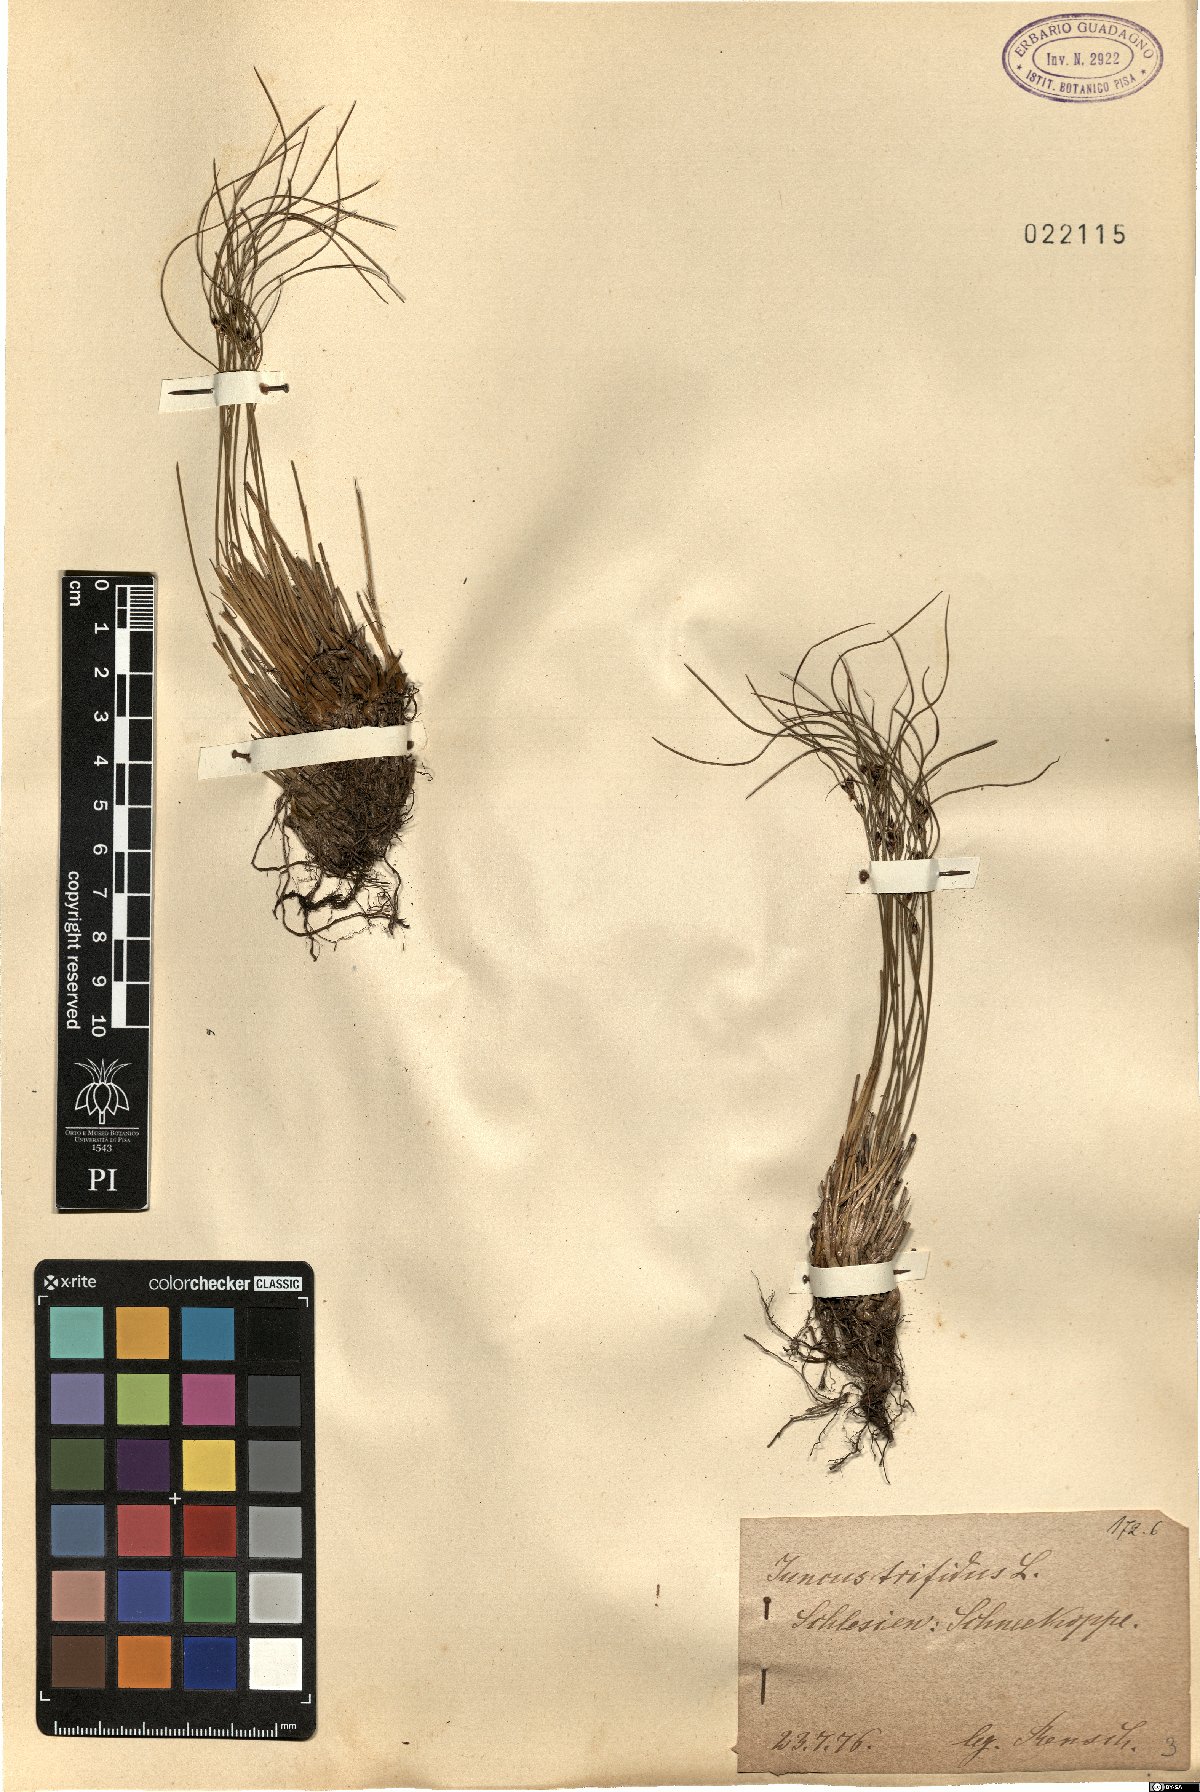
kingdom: Plantae
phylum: Tracheophyta
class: Liliopsida
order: Poales
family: Juncaceae
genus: Oreojuncus
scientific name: Oreojuncus trifidus
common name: Highland rush
